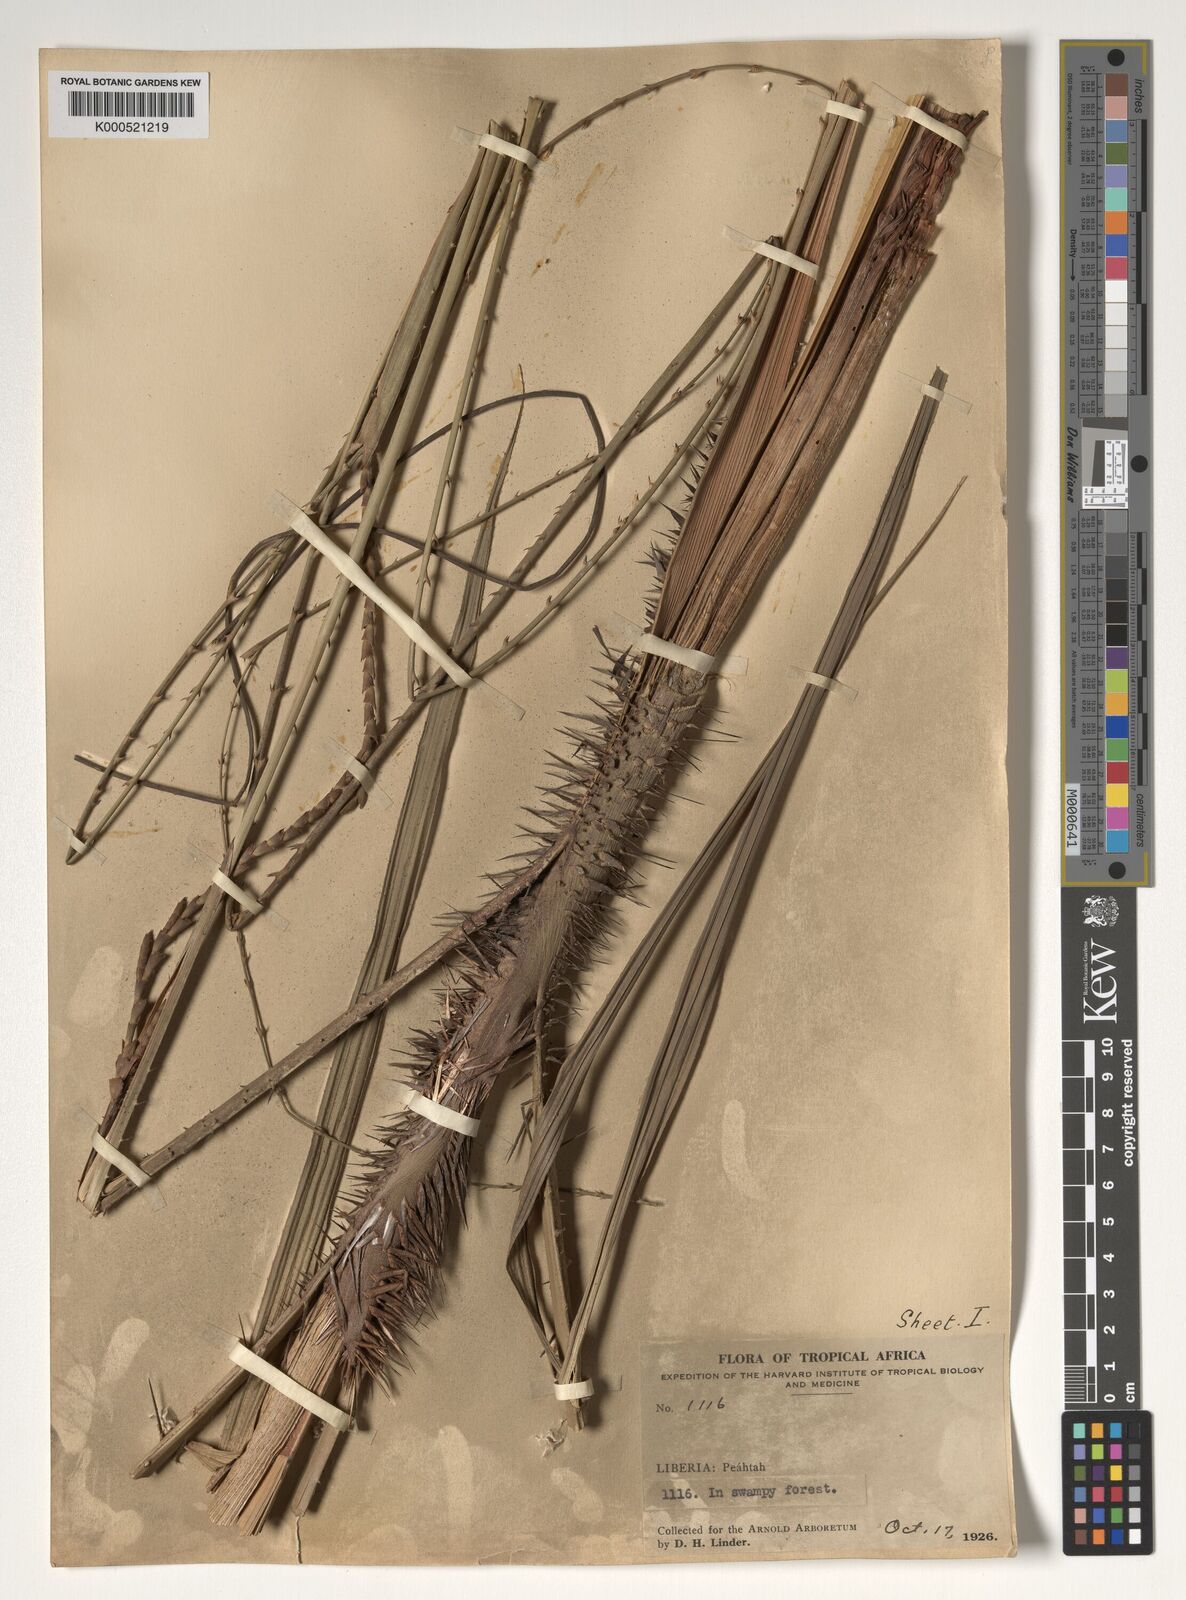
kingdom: Plantae
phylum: Tracheophyta
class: Liliopsida
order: Arecales
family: Arecaceae
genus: Calamus
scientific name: Calamus deerratus
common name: Rattan
